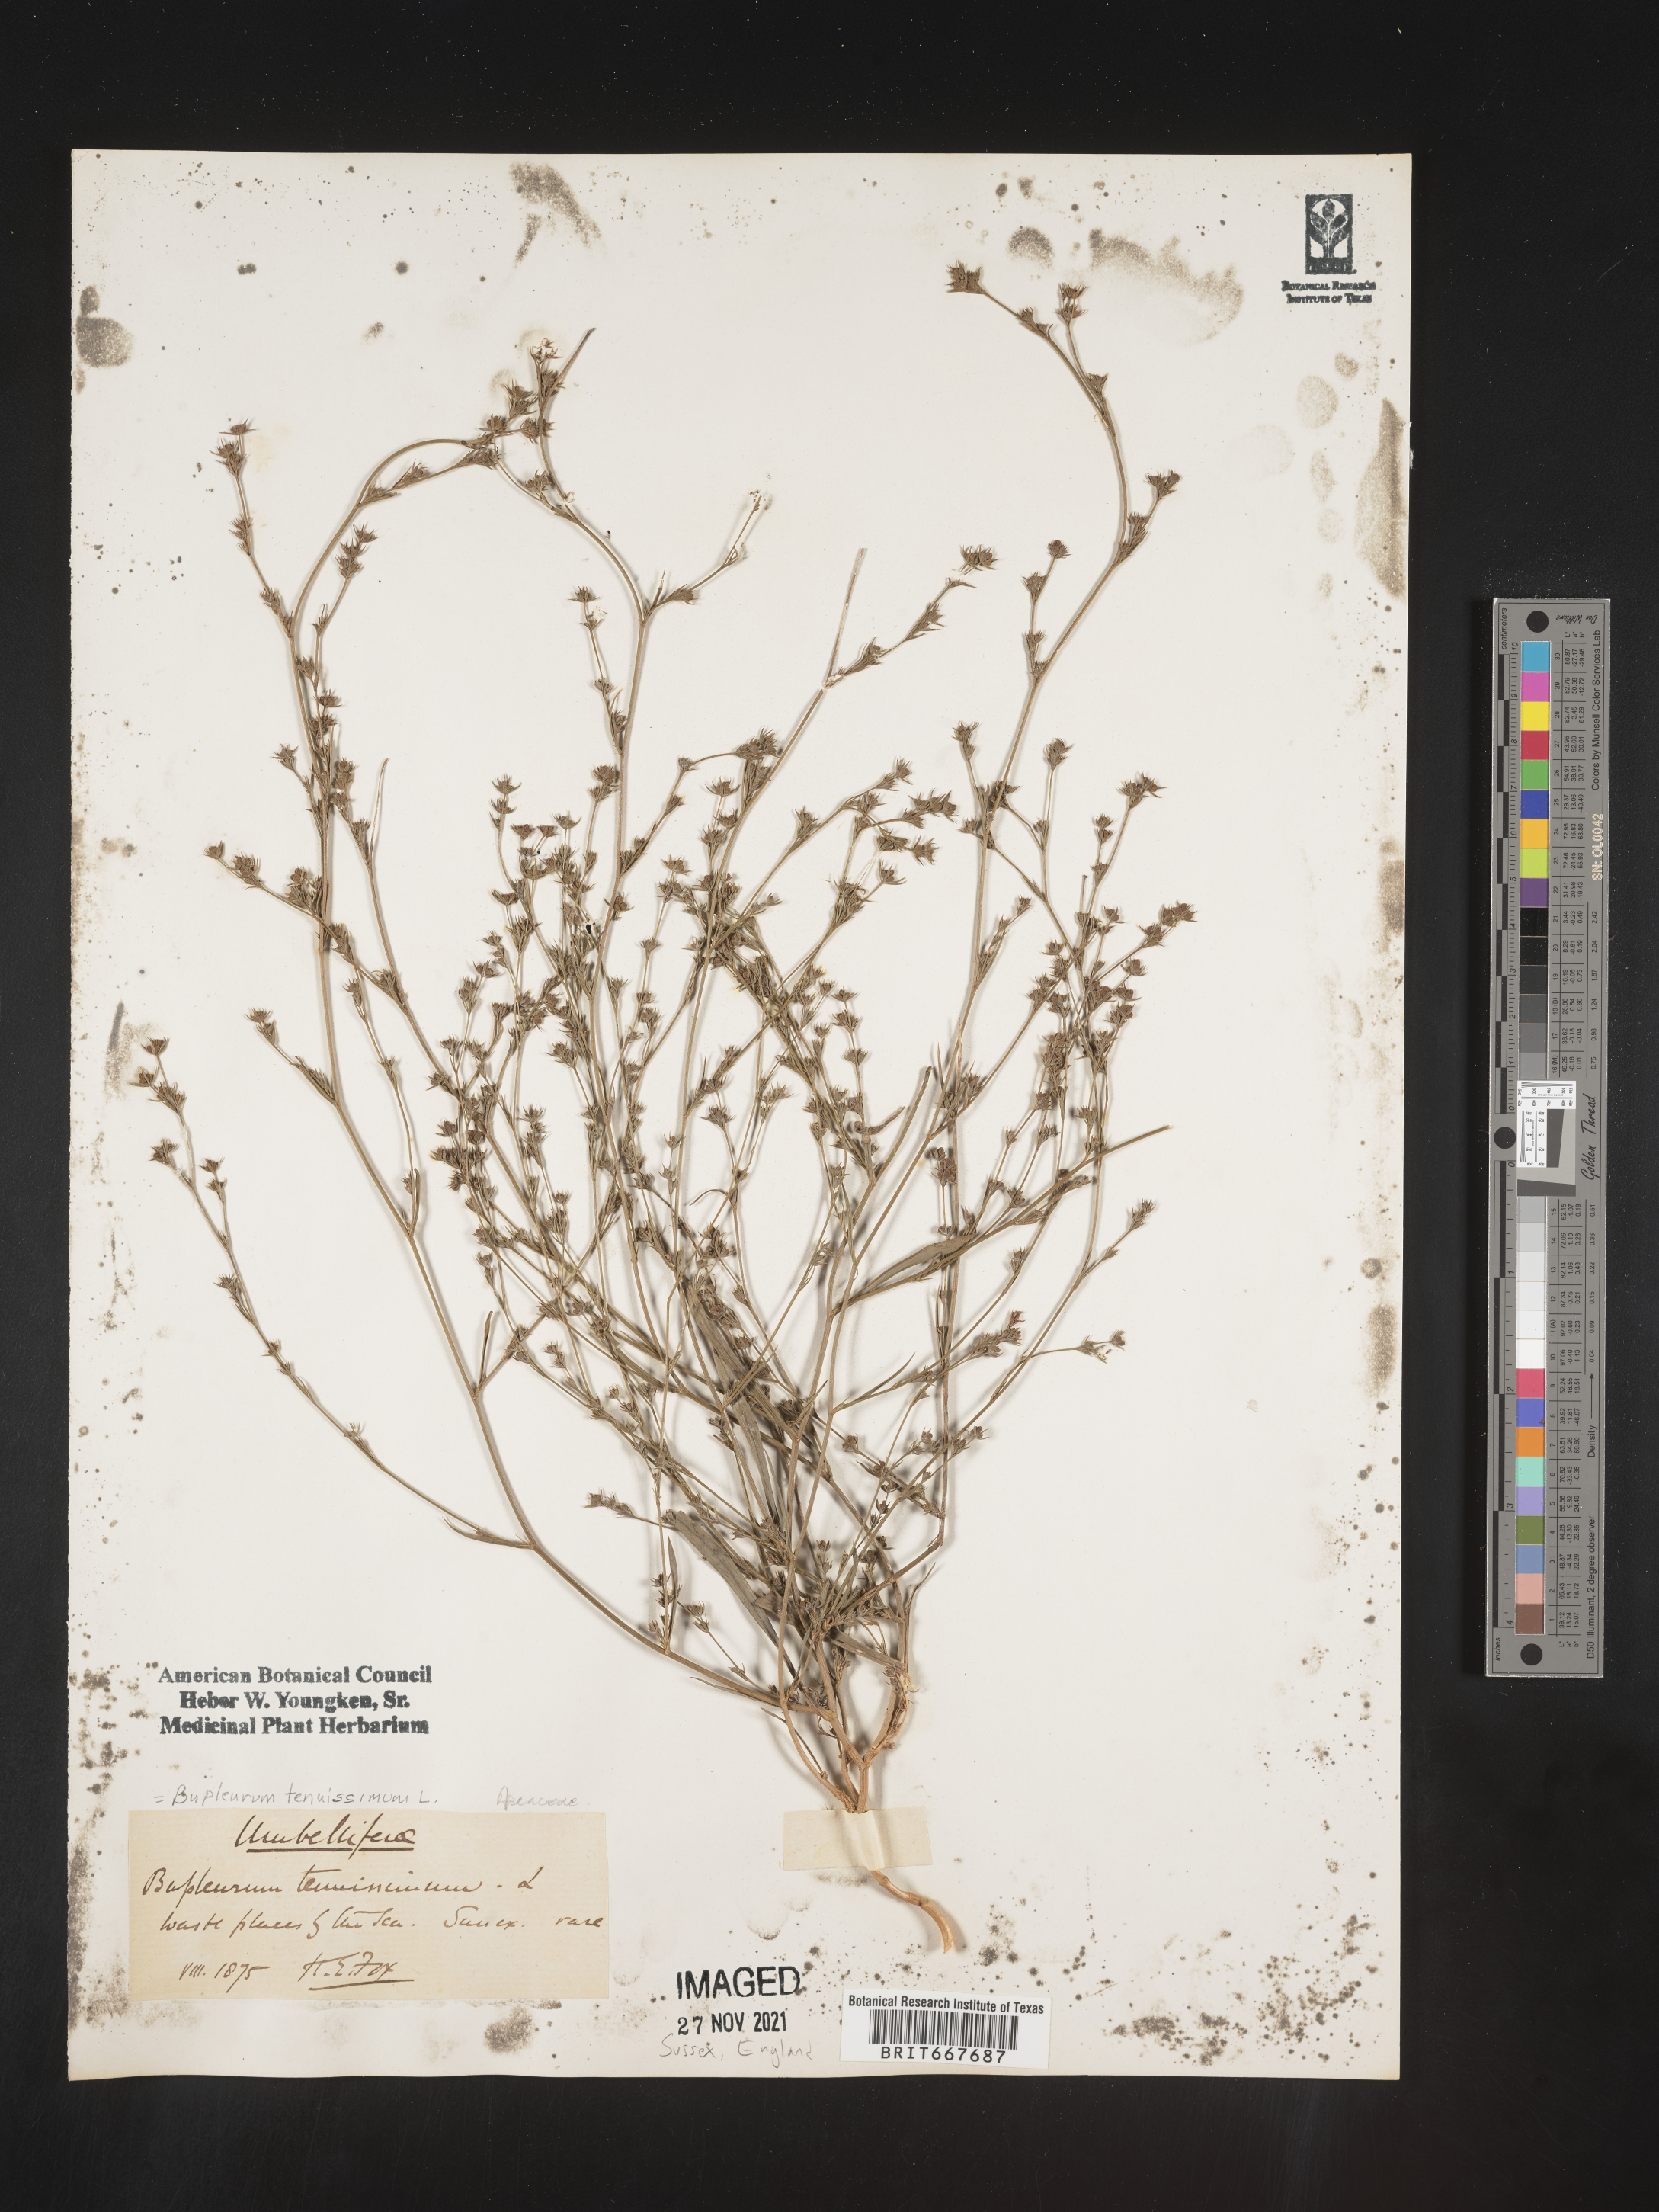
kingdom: Plantae
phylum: Tracheophyta
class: Magnoliopsida
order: Apiales
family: Apiaceae
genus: Bupleurum
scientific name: Bupleurum
